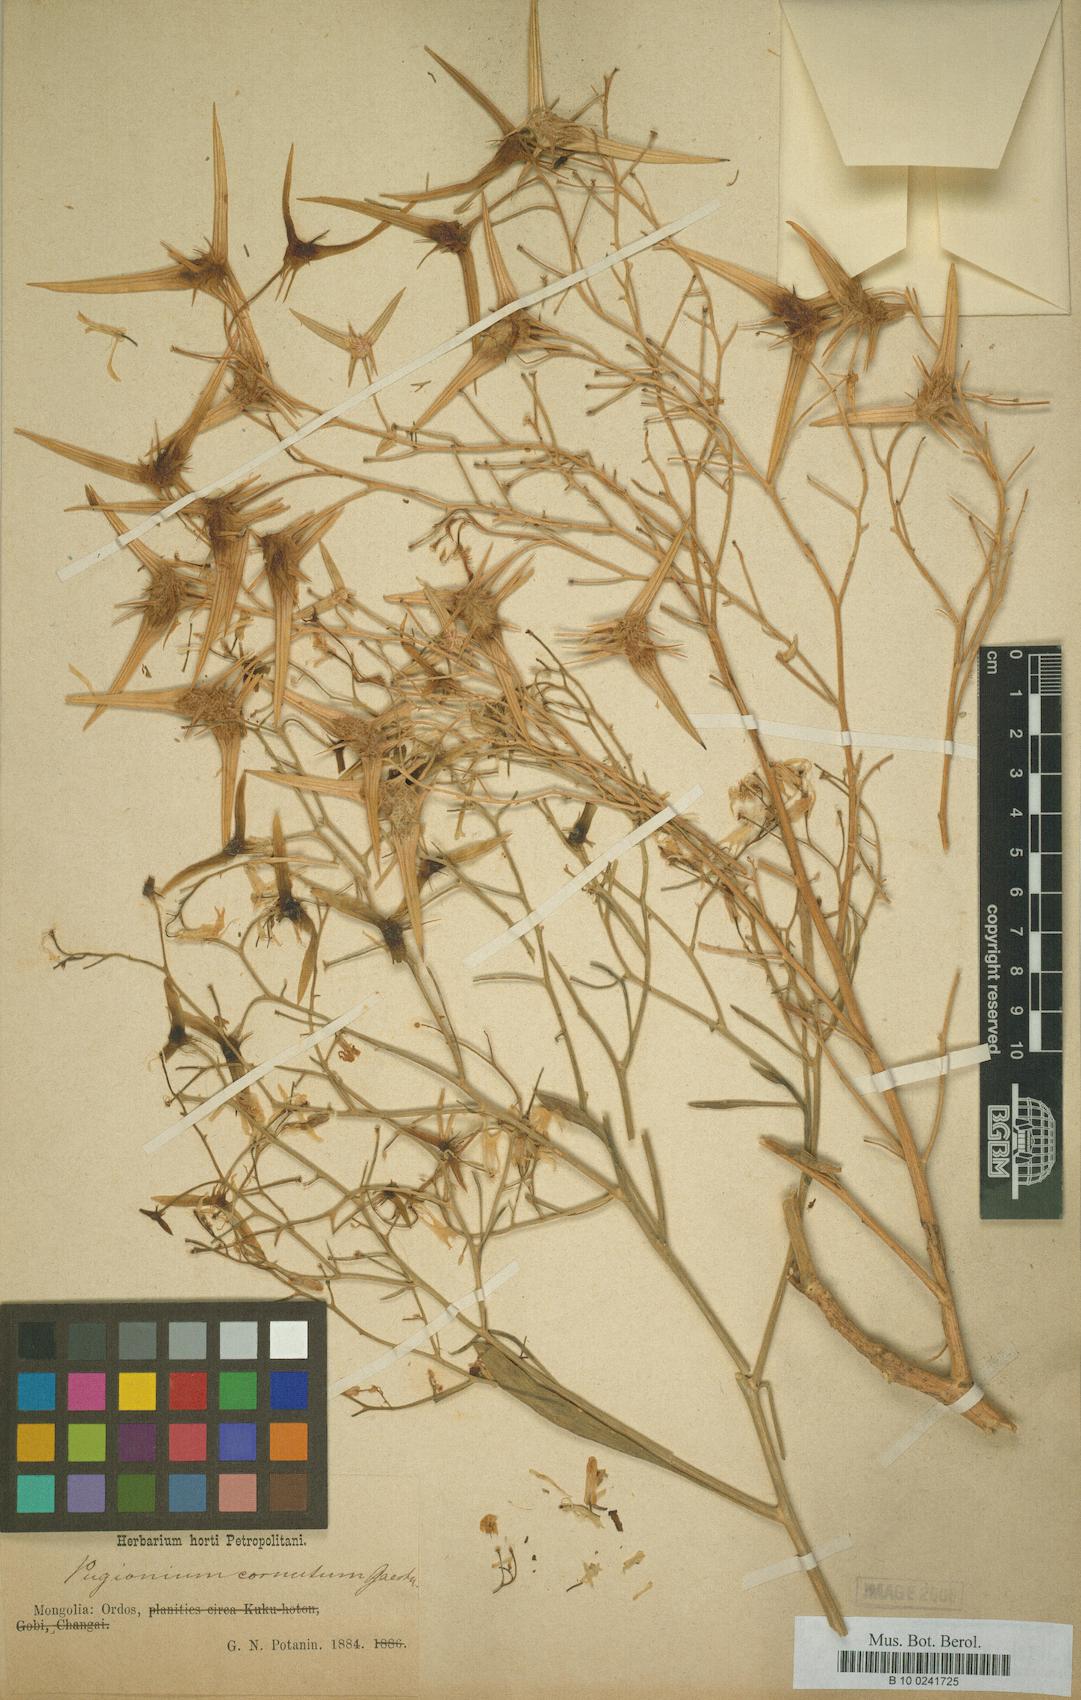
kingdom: Plantae
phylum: Tracheophyta
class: Magnoliopsida
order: Brassicales
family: Brassicaceae
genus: Pugionium
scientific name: Pugionium cornutum
